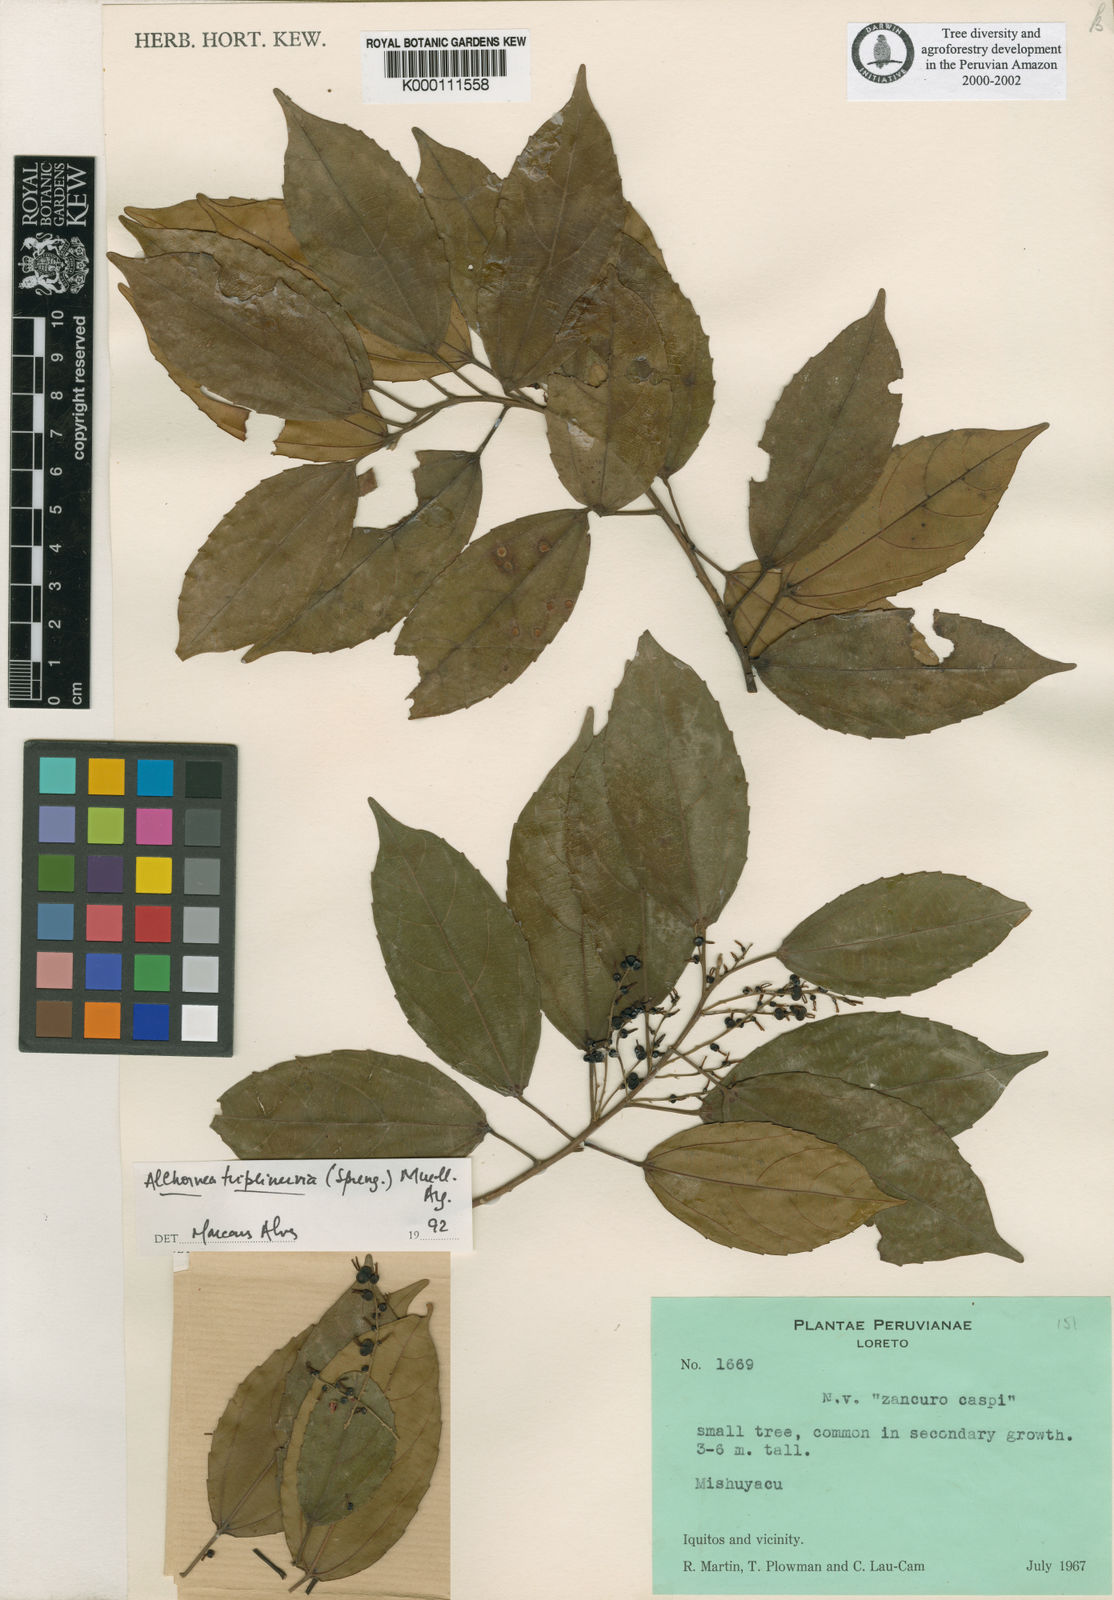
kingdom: Plantae
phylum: Tracheophyta
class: Magnoliopsida
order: Malpighiales
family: Euphorbiaceae
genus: Alchornea
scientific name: Alchornea
